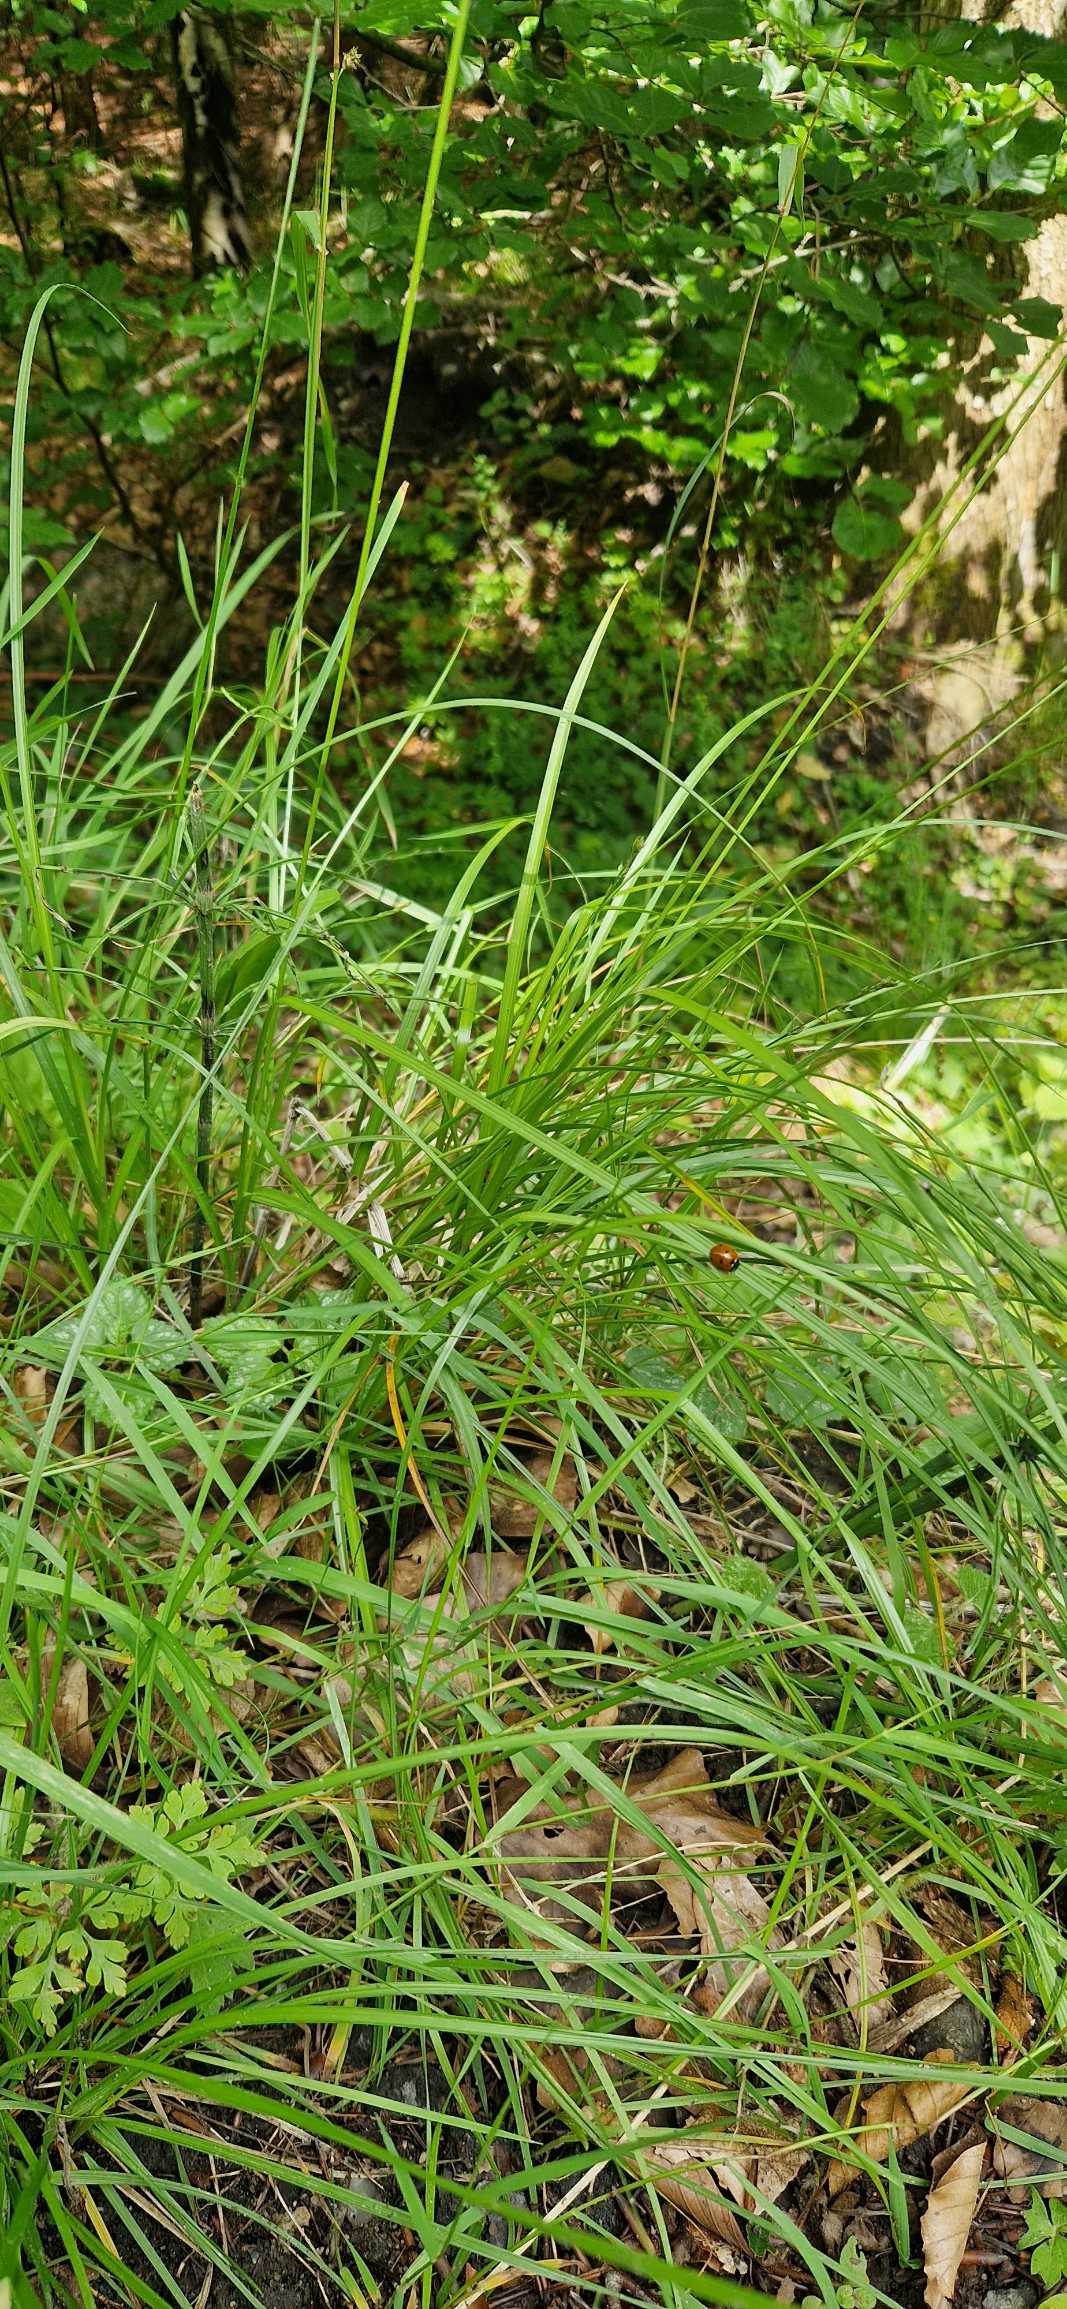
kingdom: Plantae
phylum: Tracheophyta
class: Liliopsida
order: Poales
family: Cyperaceae
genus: Carex
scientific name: Carex divulsa
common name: Mellembrudt star
